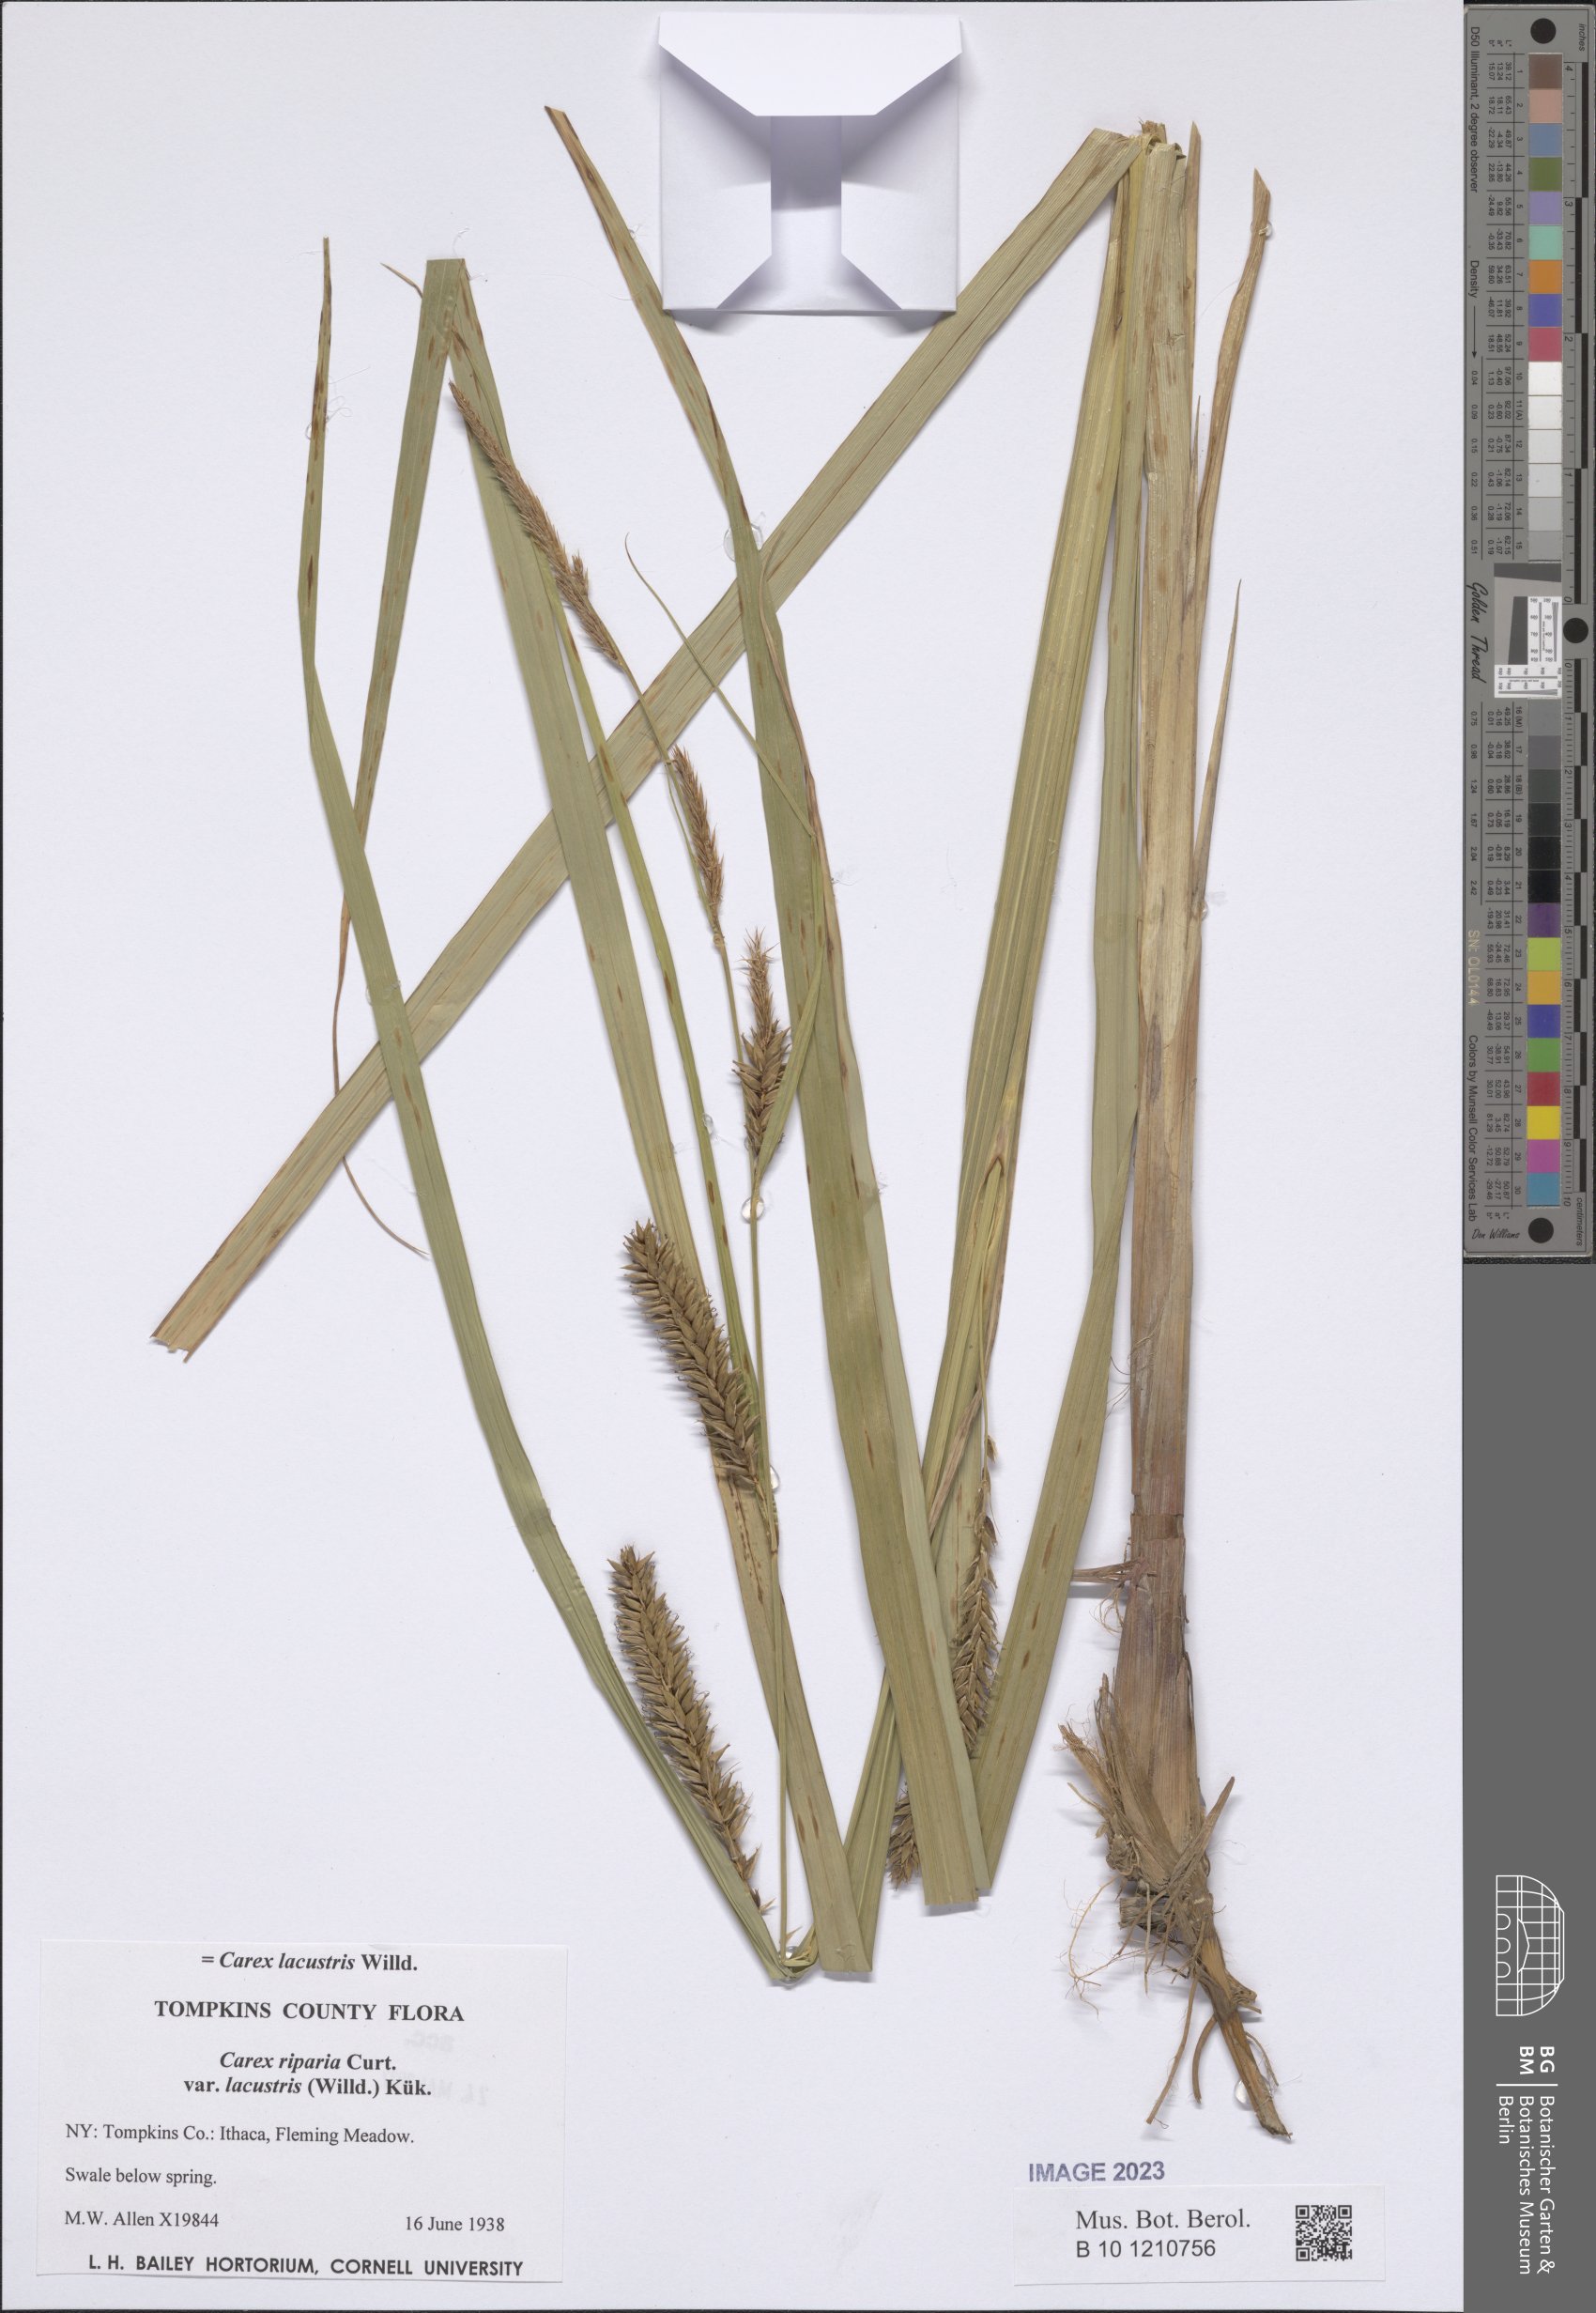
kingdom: Plantae
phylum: Tracheophyta
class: Liliopsida
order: Poales
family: Cyperaceae
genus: Carex
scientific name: Carex lacustris
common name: Common lake sedge
